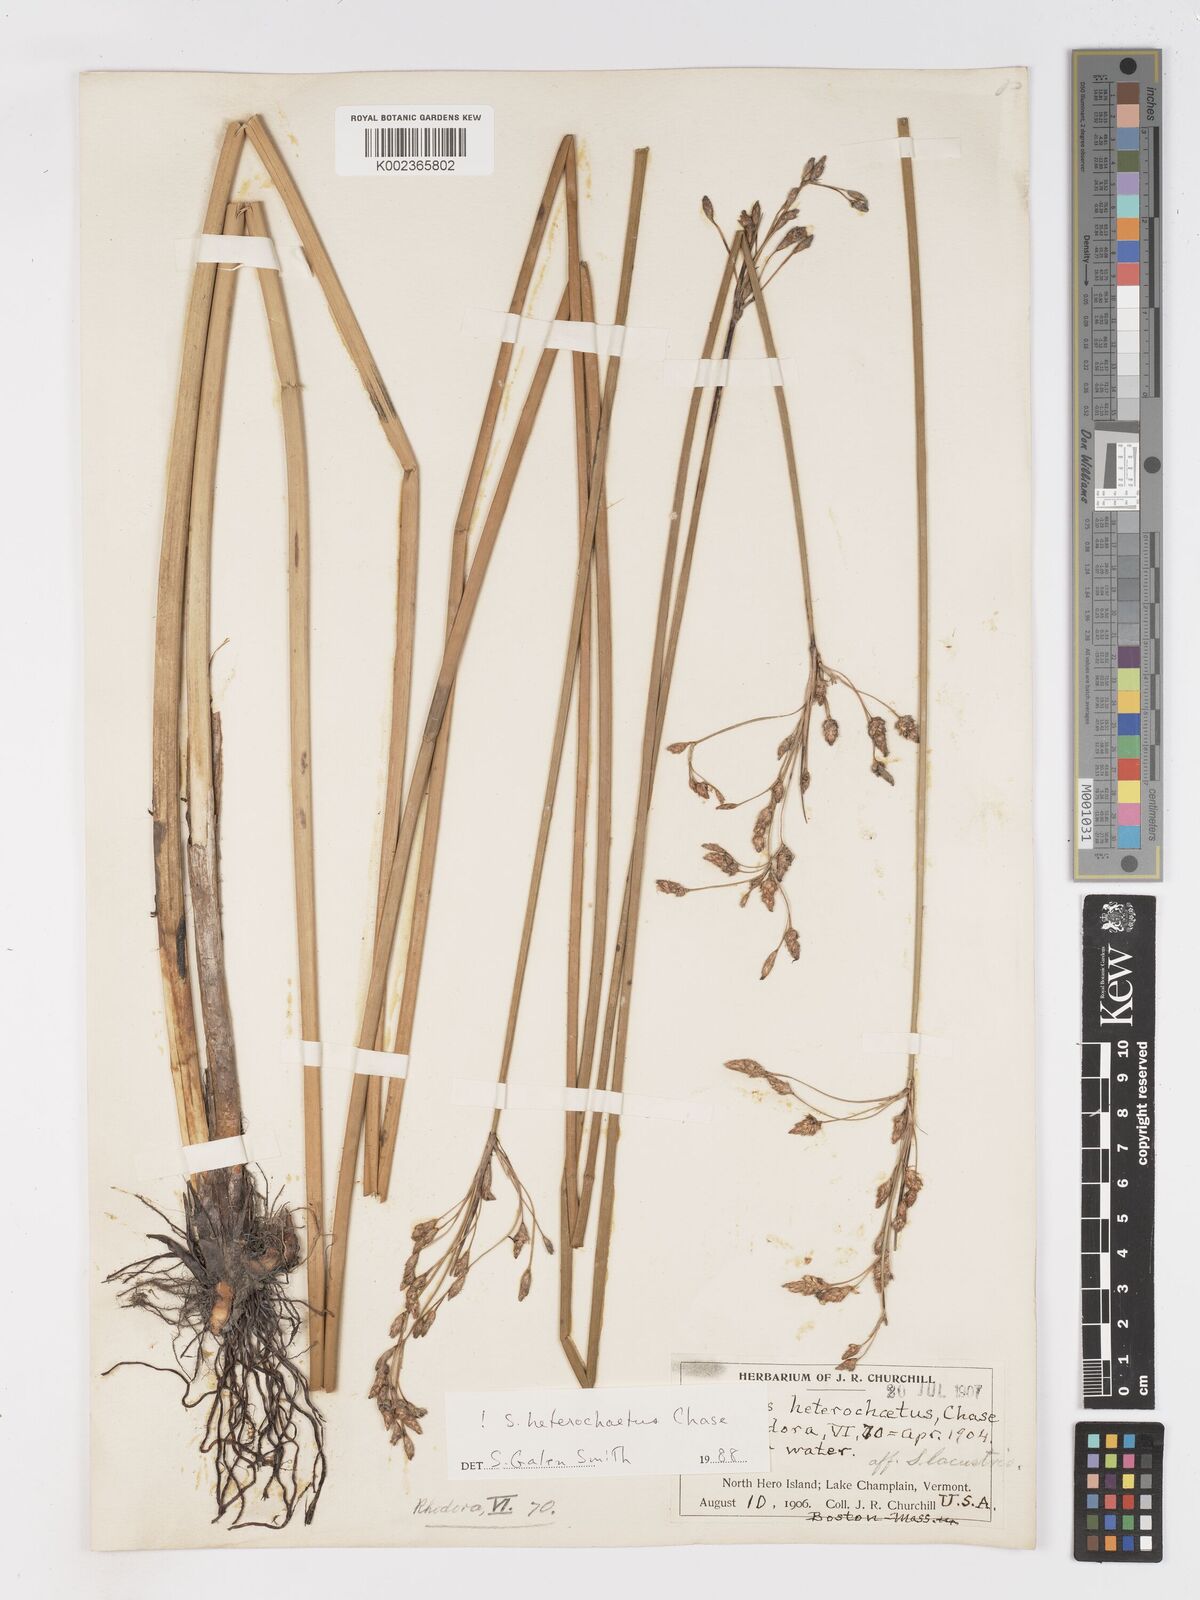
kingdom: Plantae
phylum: Tracheophyta
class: Liliopsida
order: Poales
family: Cyperaceae
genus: Schoenoplectus
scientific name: Schoenoplectus heterochaetus
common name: Pale great bulrush
